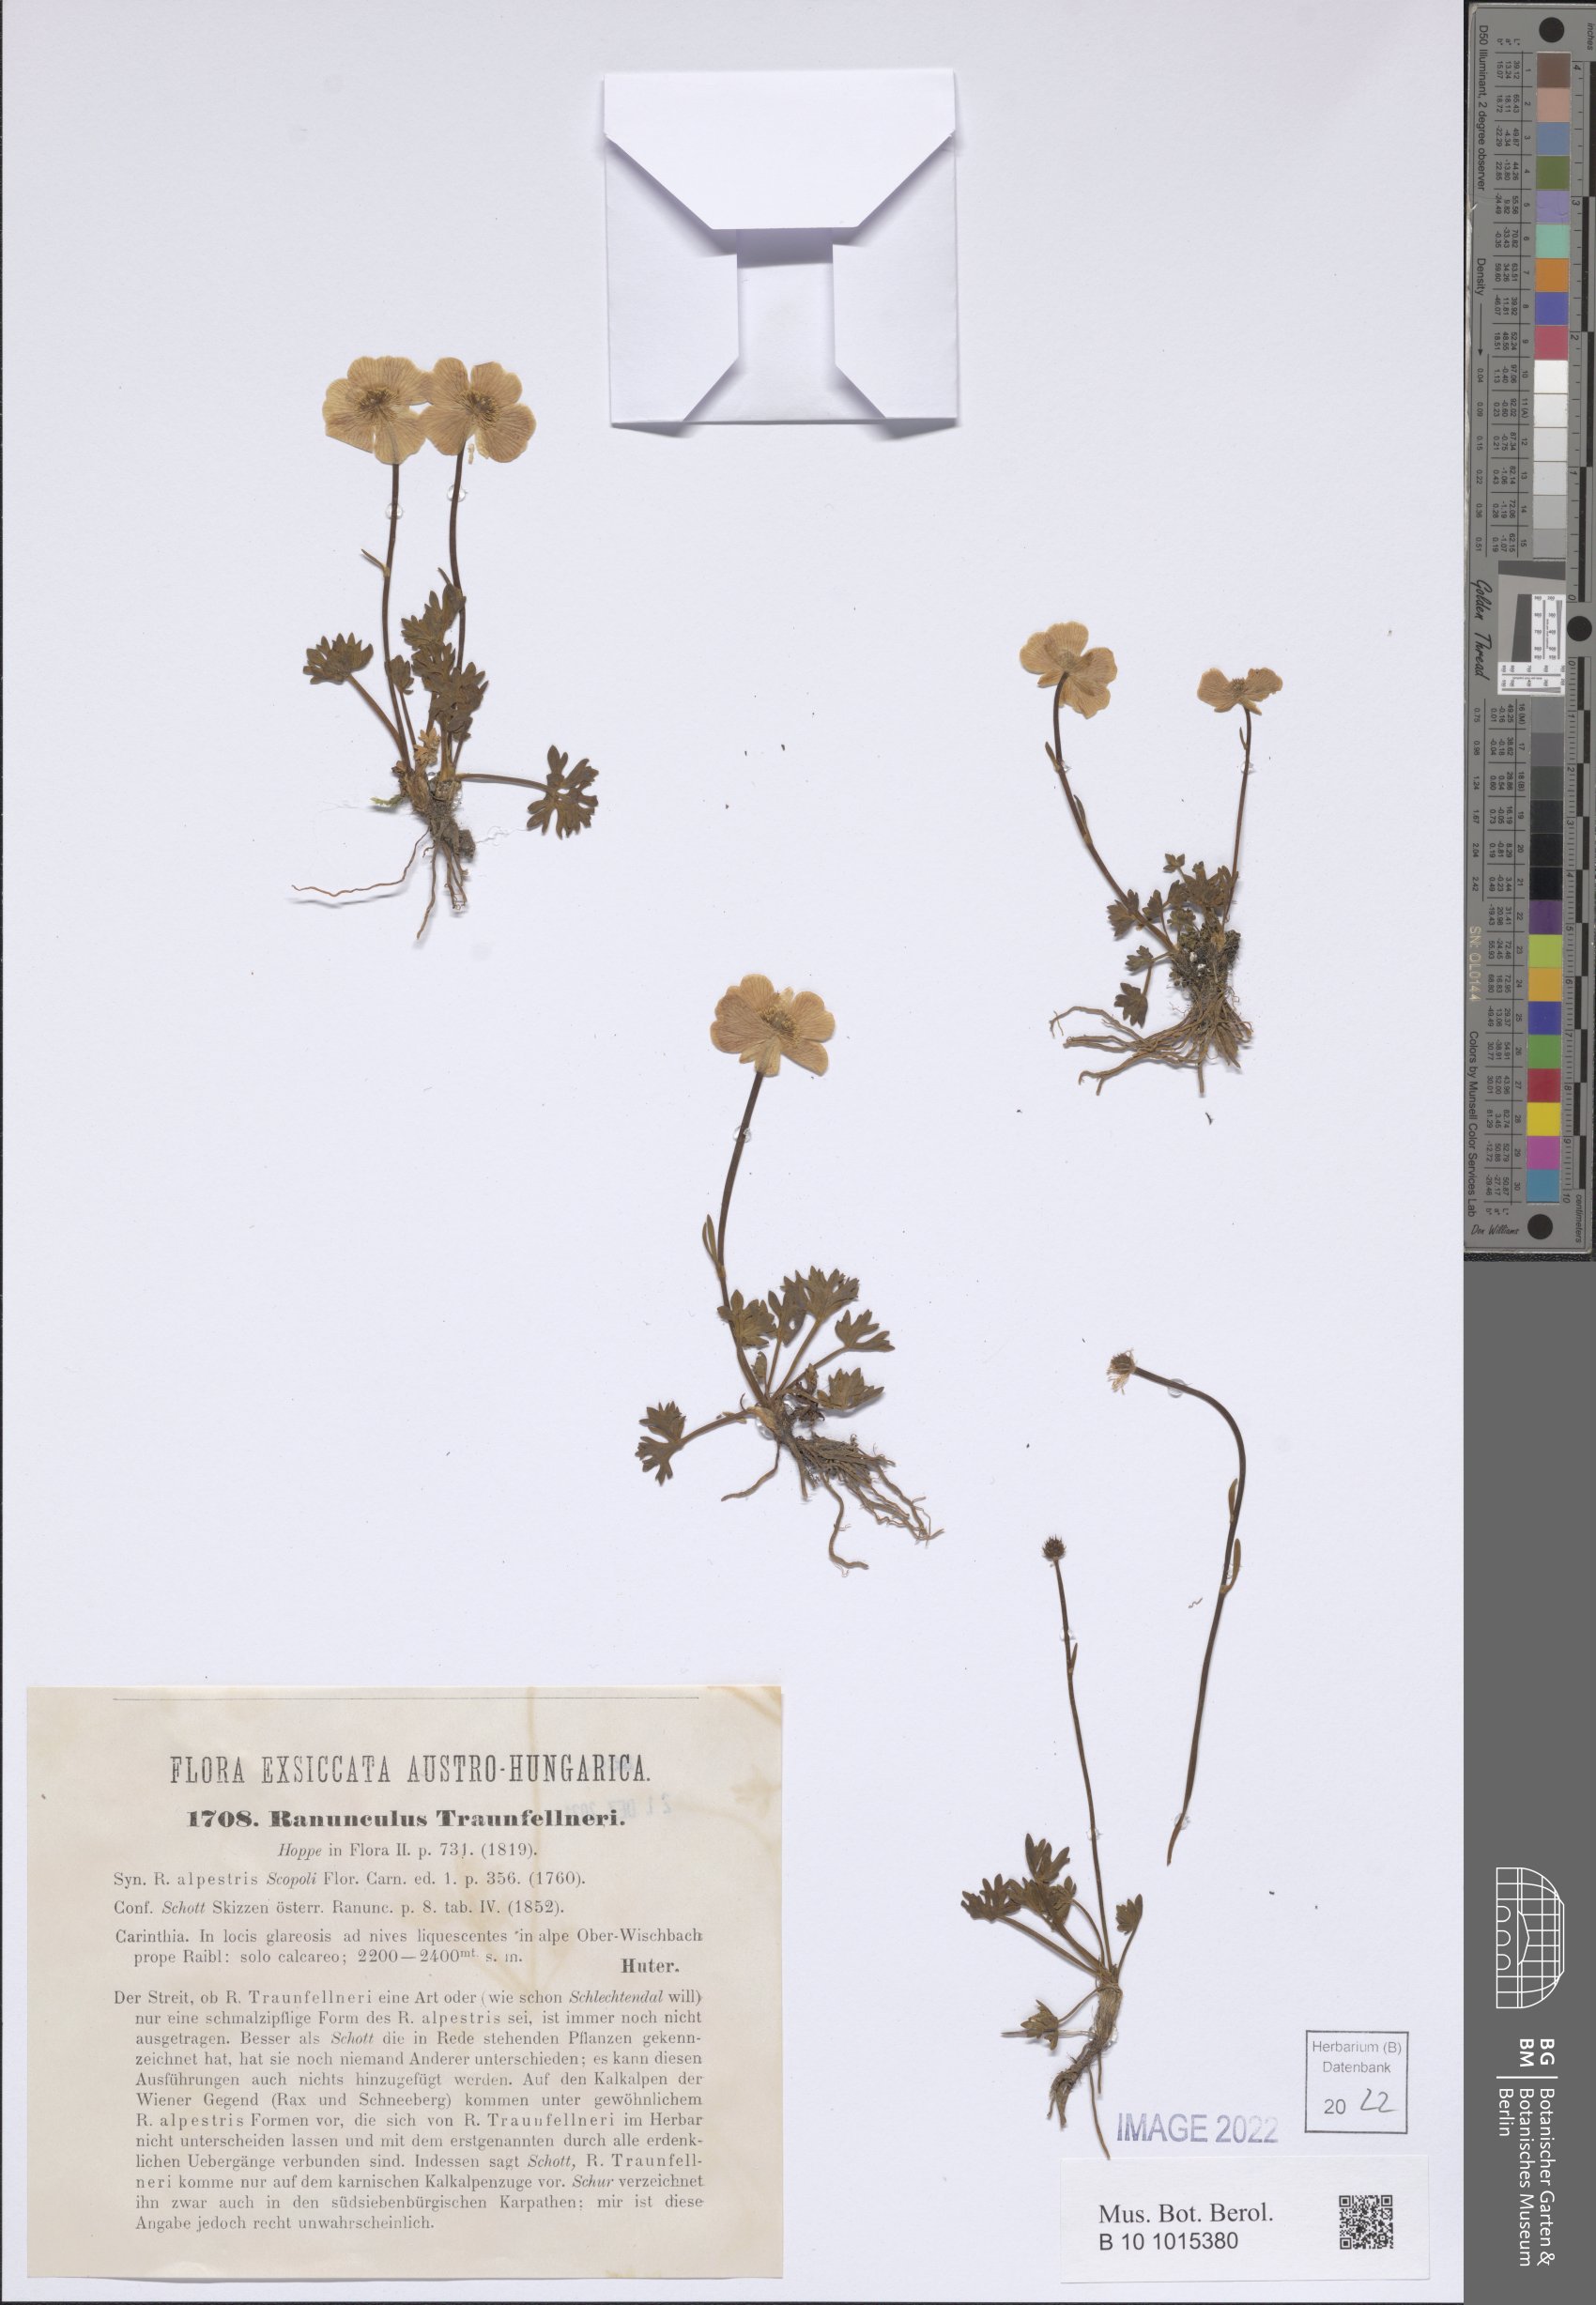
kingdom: Plantae
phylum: Tracheophyta
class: Magnoliopsida
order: Ranunculales
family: Ranunculaceae
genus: Ranunculus
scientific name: Ranunculus traunfellneri
